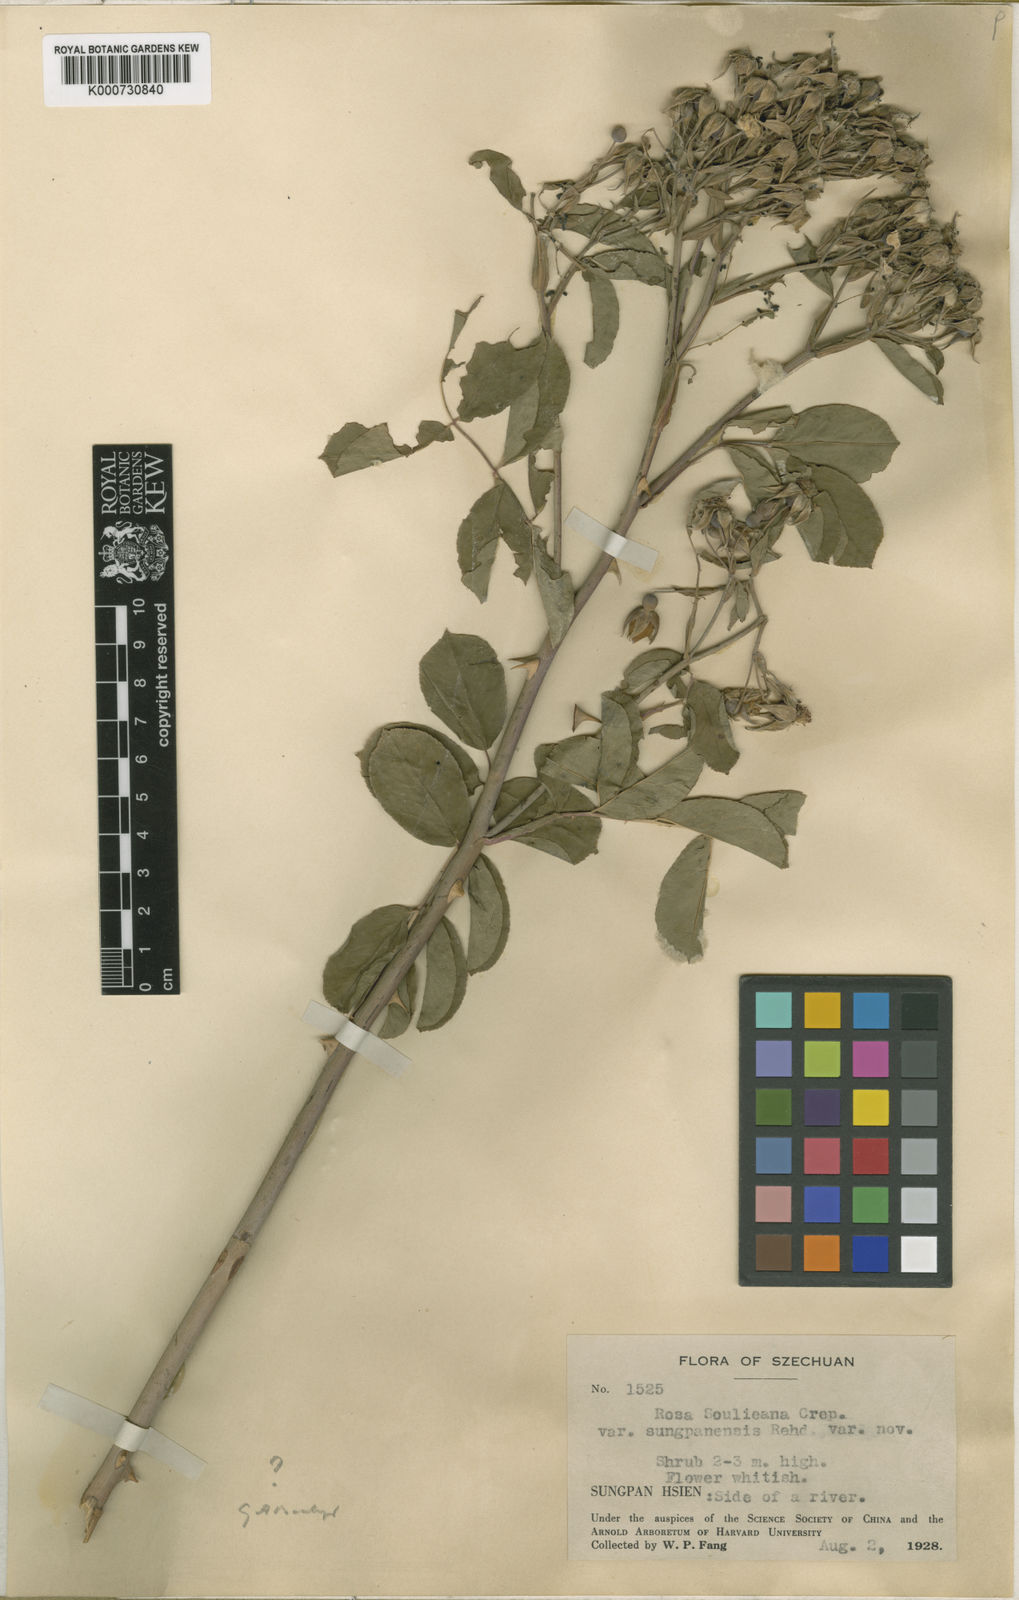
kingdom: Plantae
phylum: Tracheophyta
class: Magnoliopsida
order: Rosales
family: Rosaceae
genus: Rosa
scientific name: Rosa
